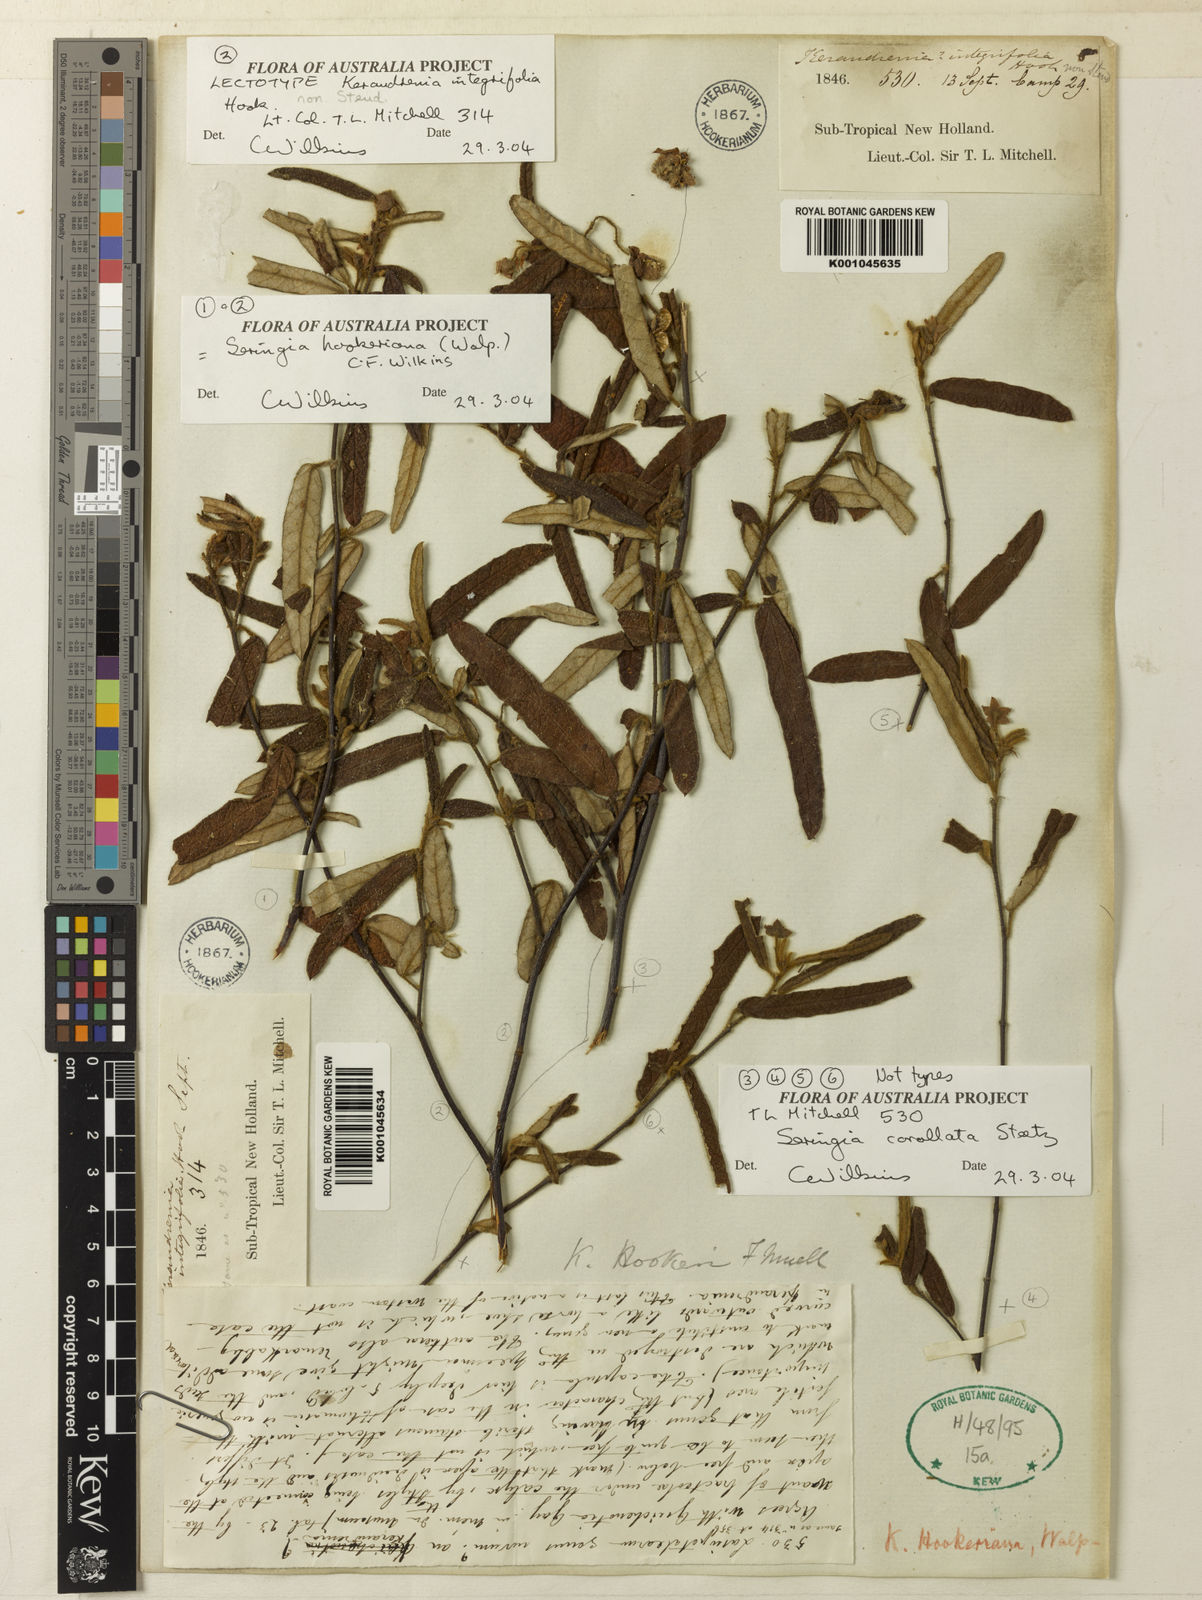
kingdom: Plantae
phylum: Tracheophyta
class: Magnoliopsida
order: Malvales
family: Malvaceae
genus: Seringia
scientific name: Seringia
